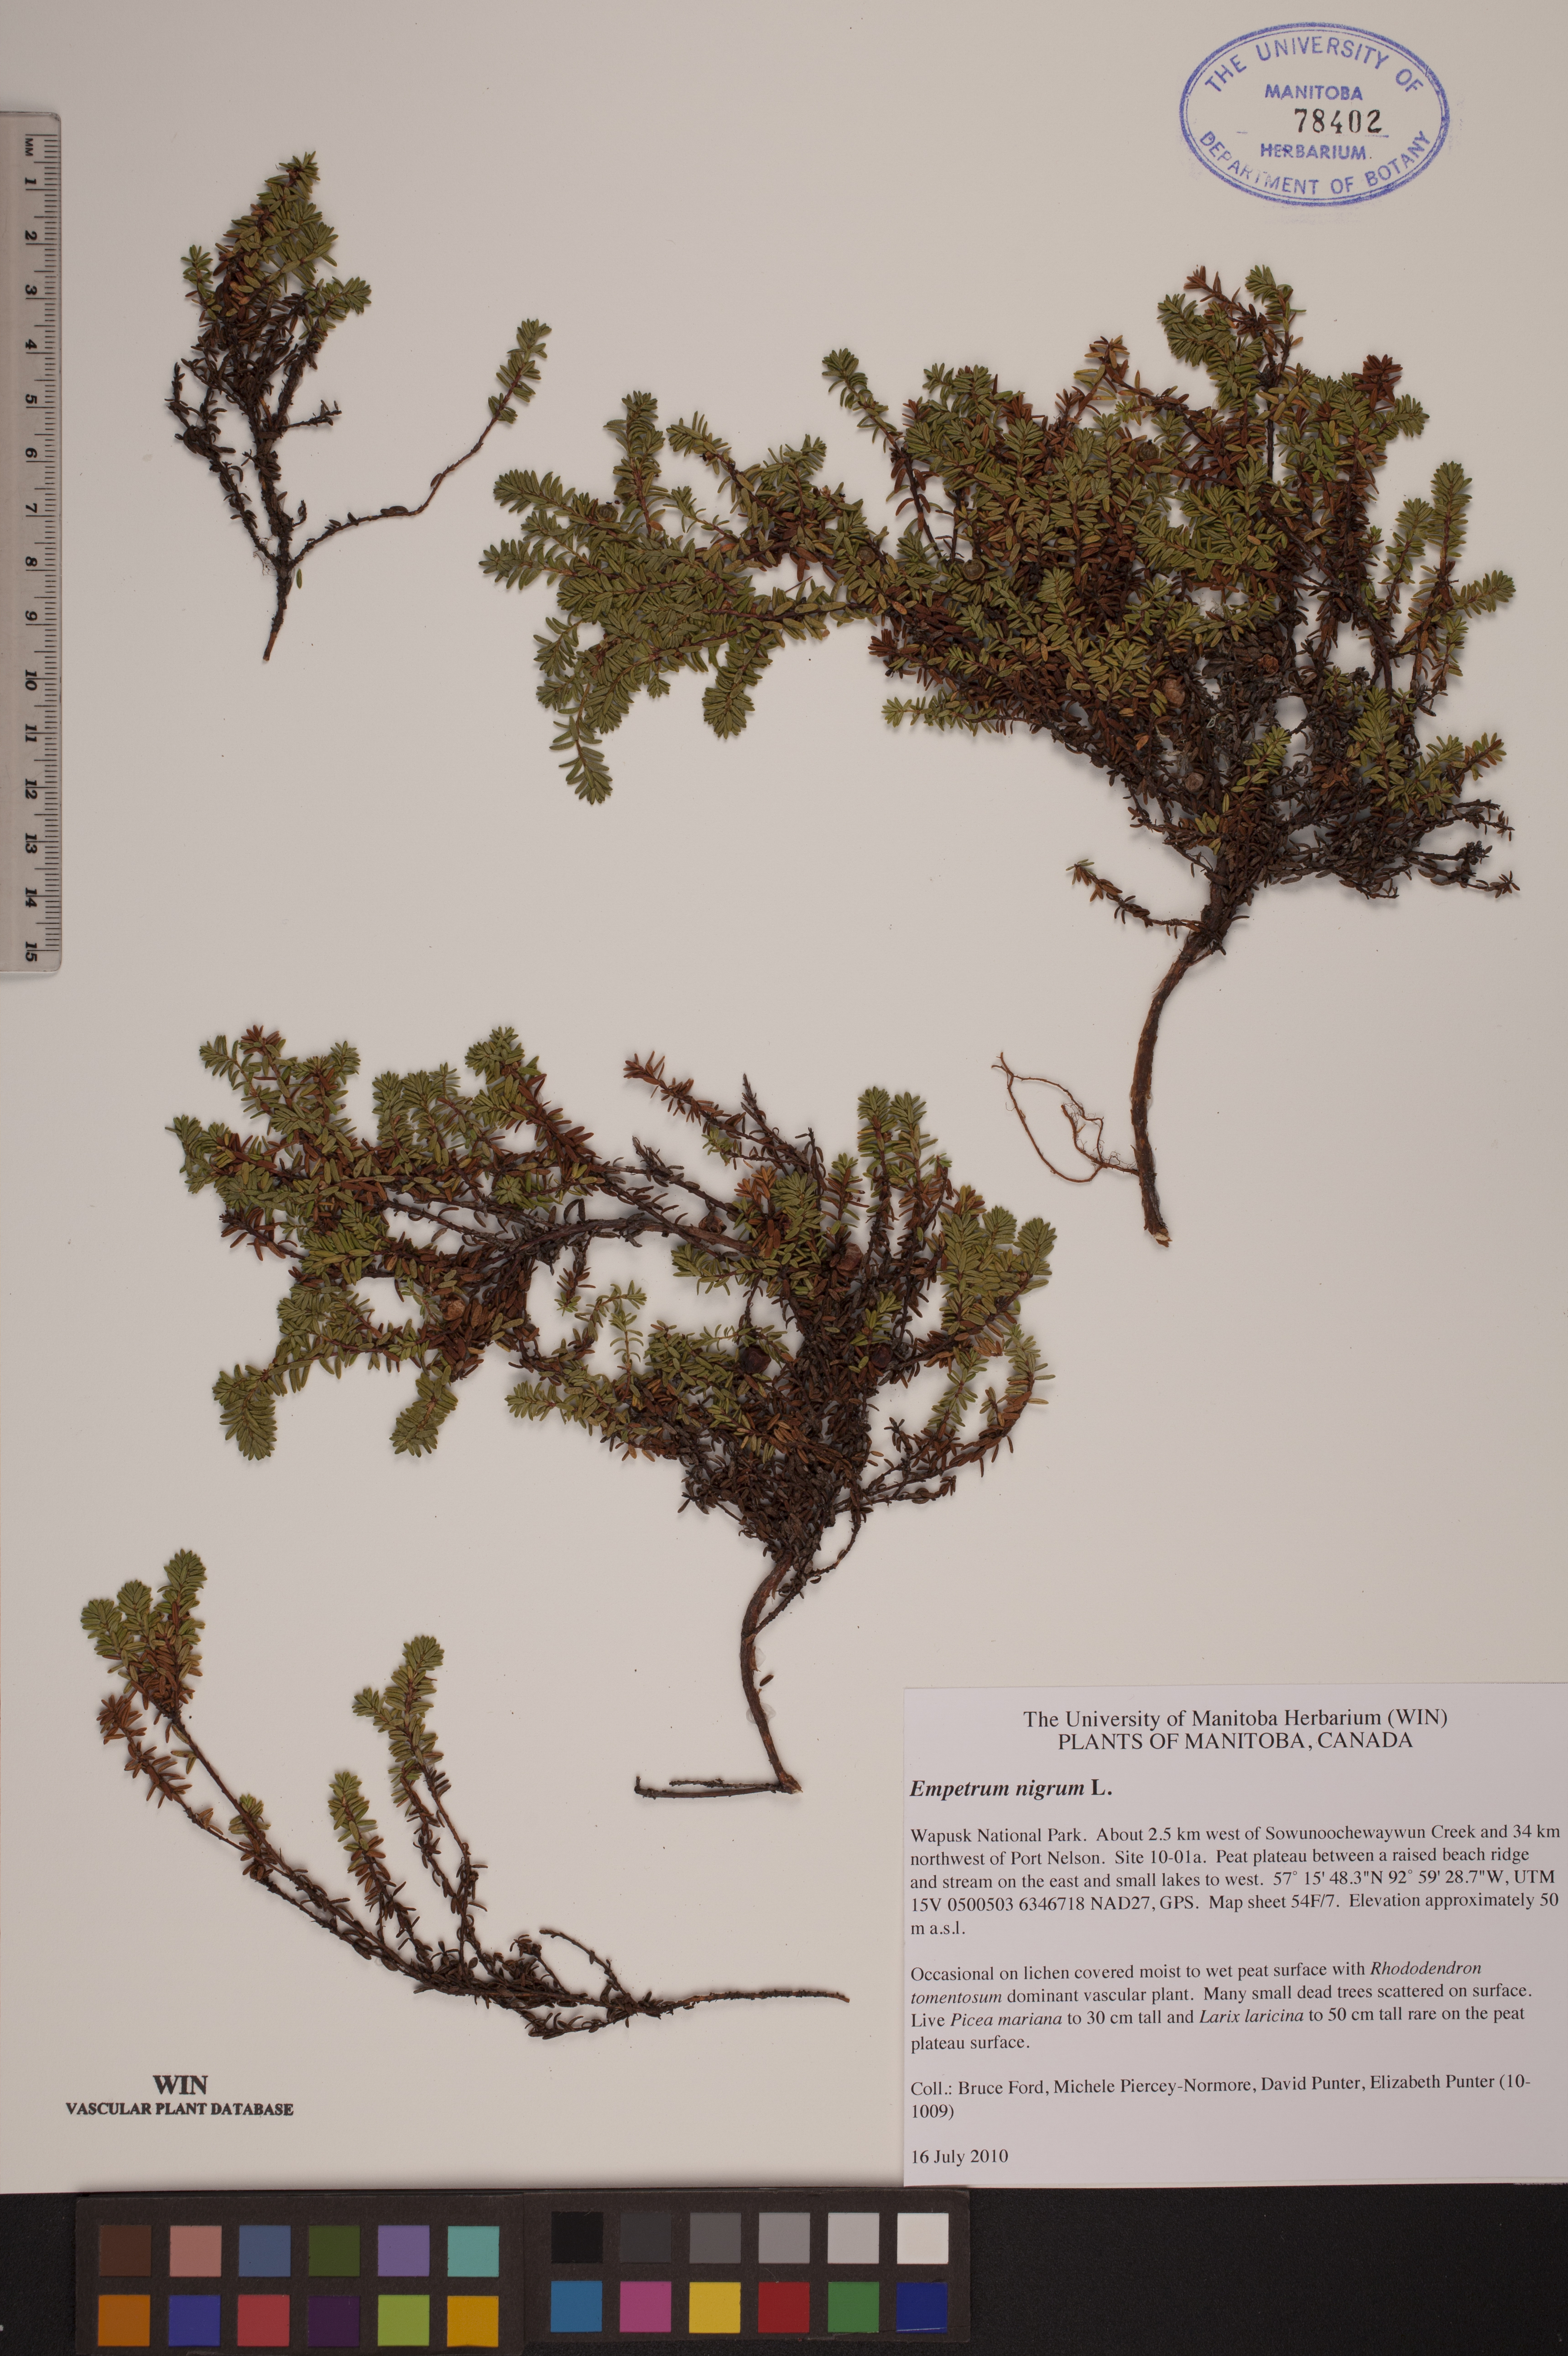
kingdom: Plantae
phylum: Tracheophyta
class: Magnoliopsida
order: Ericales
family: Ericaceae
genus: Empetrum
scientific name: Empetrum nigrum
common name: Black crowberry
